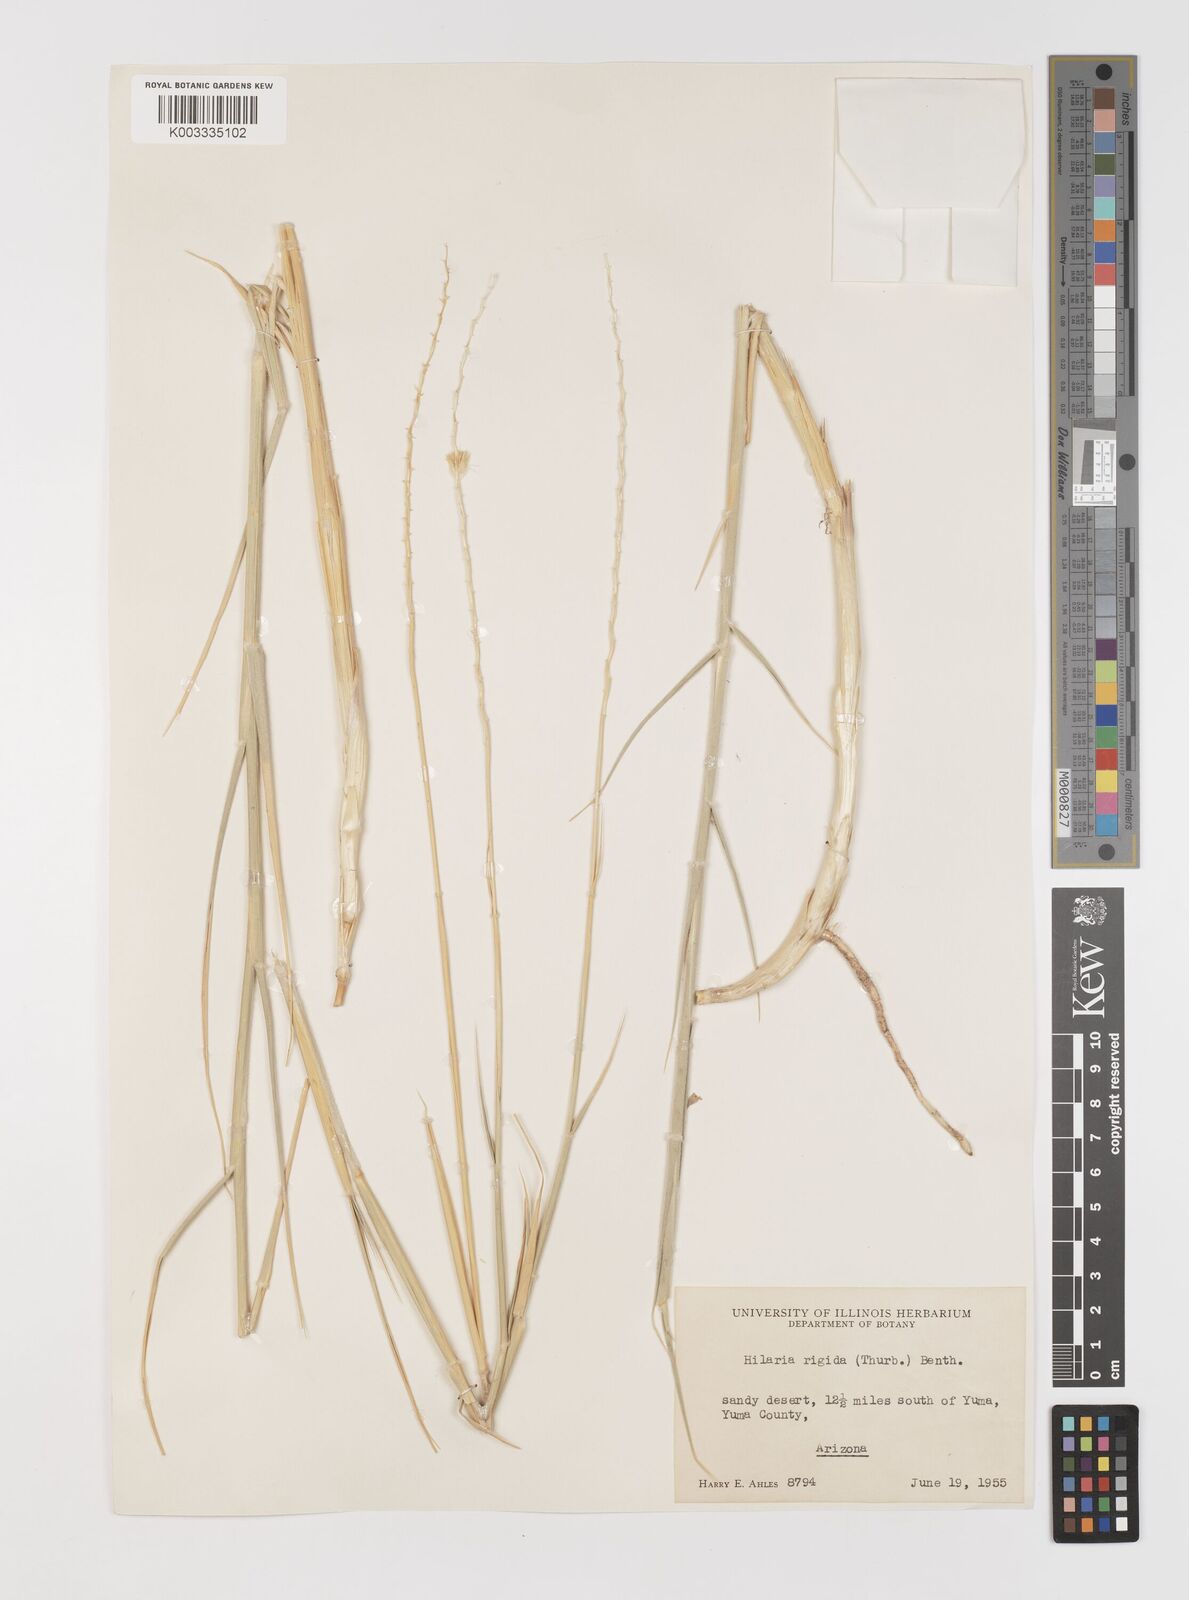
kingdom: Plantae
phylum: Tracheophyta
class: Liliopsida
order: Poales
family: Poaceae
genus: Hilaria
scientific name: Hilaria rigida
